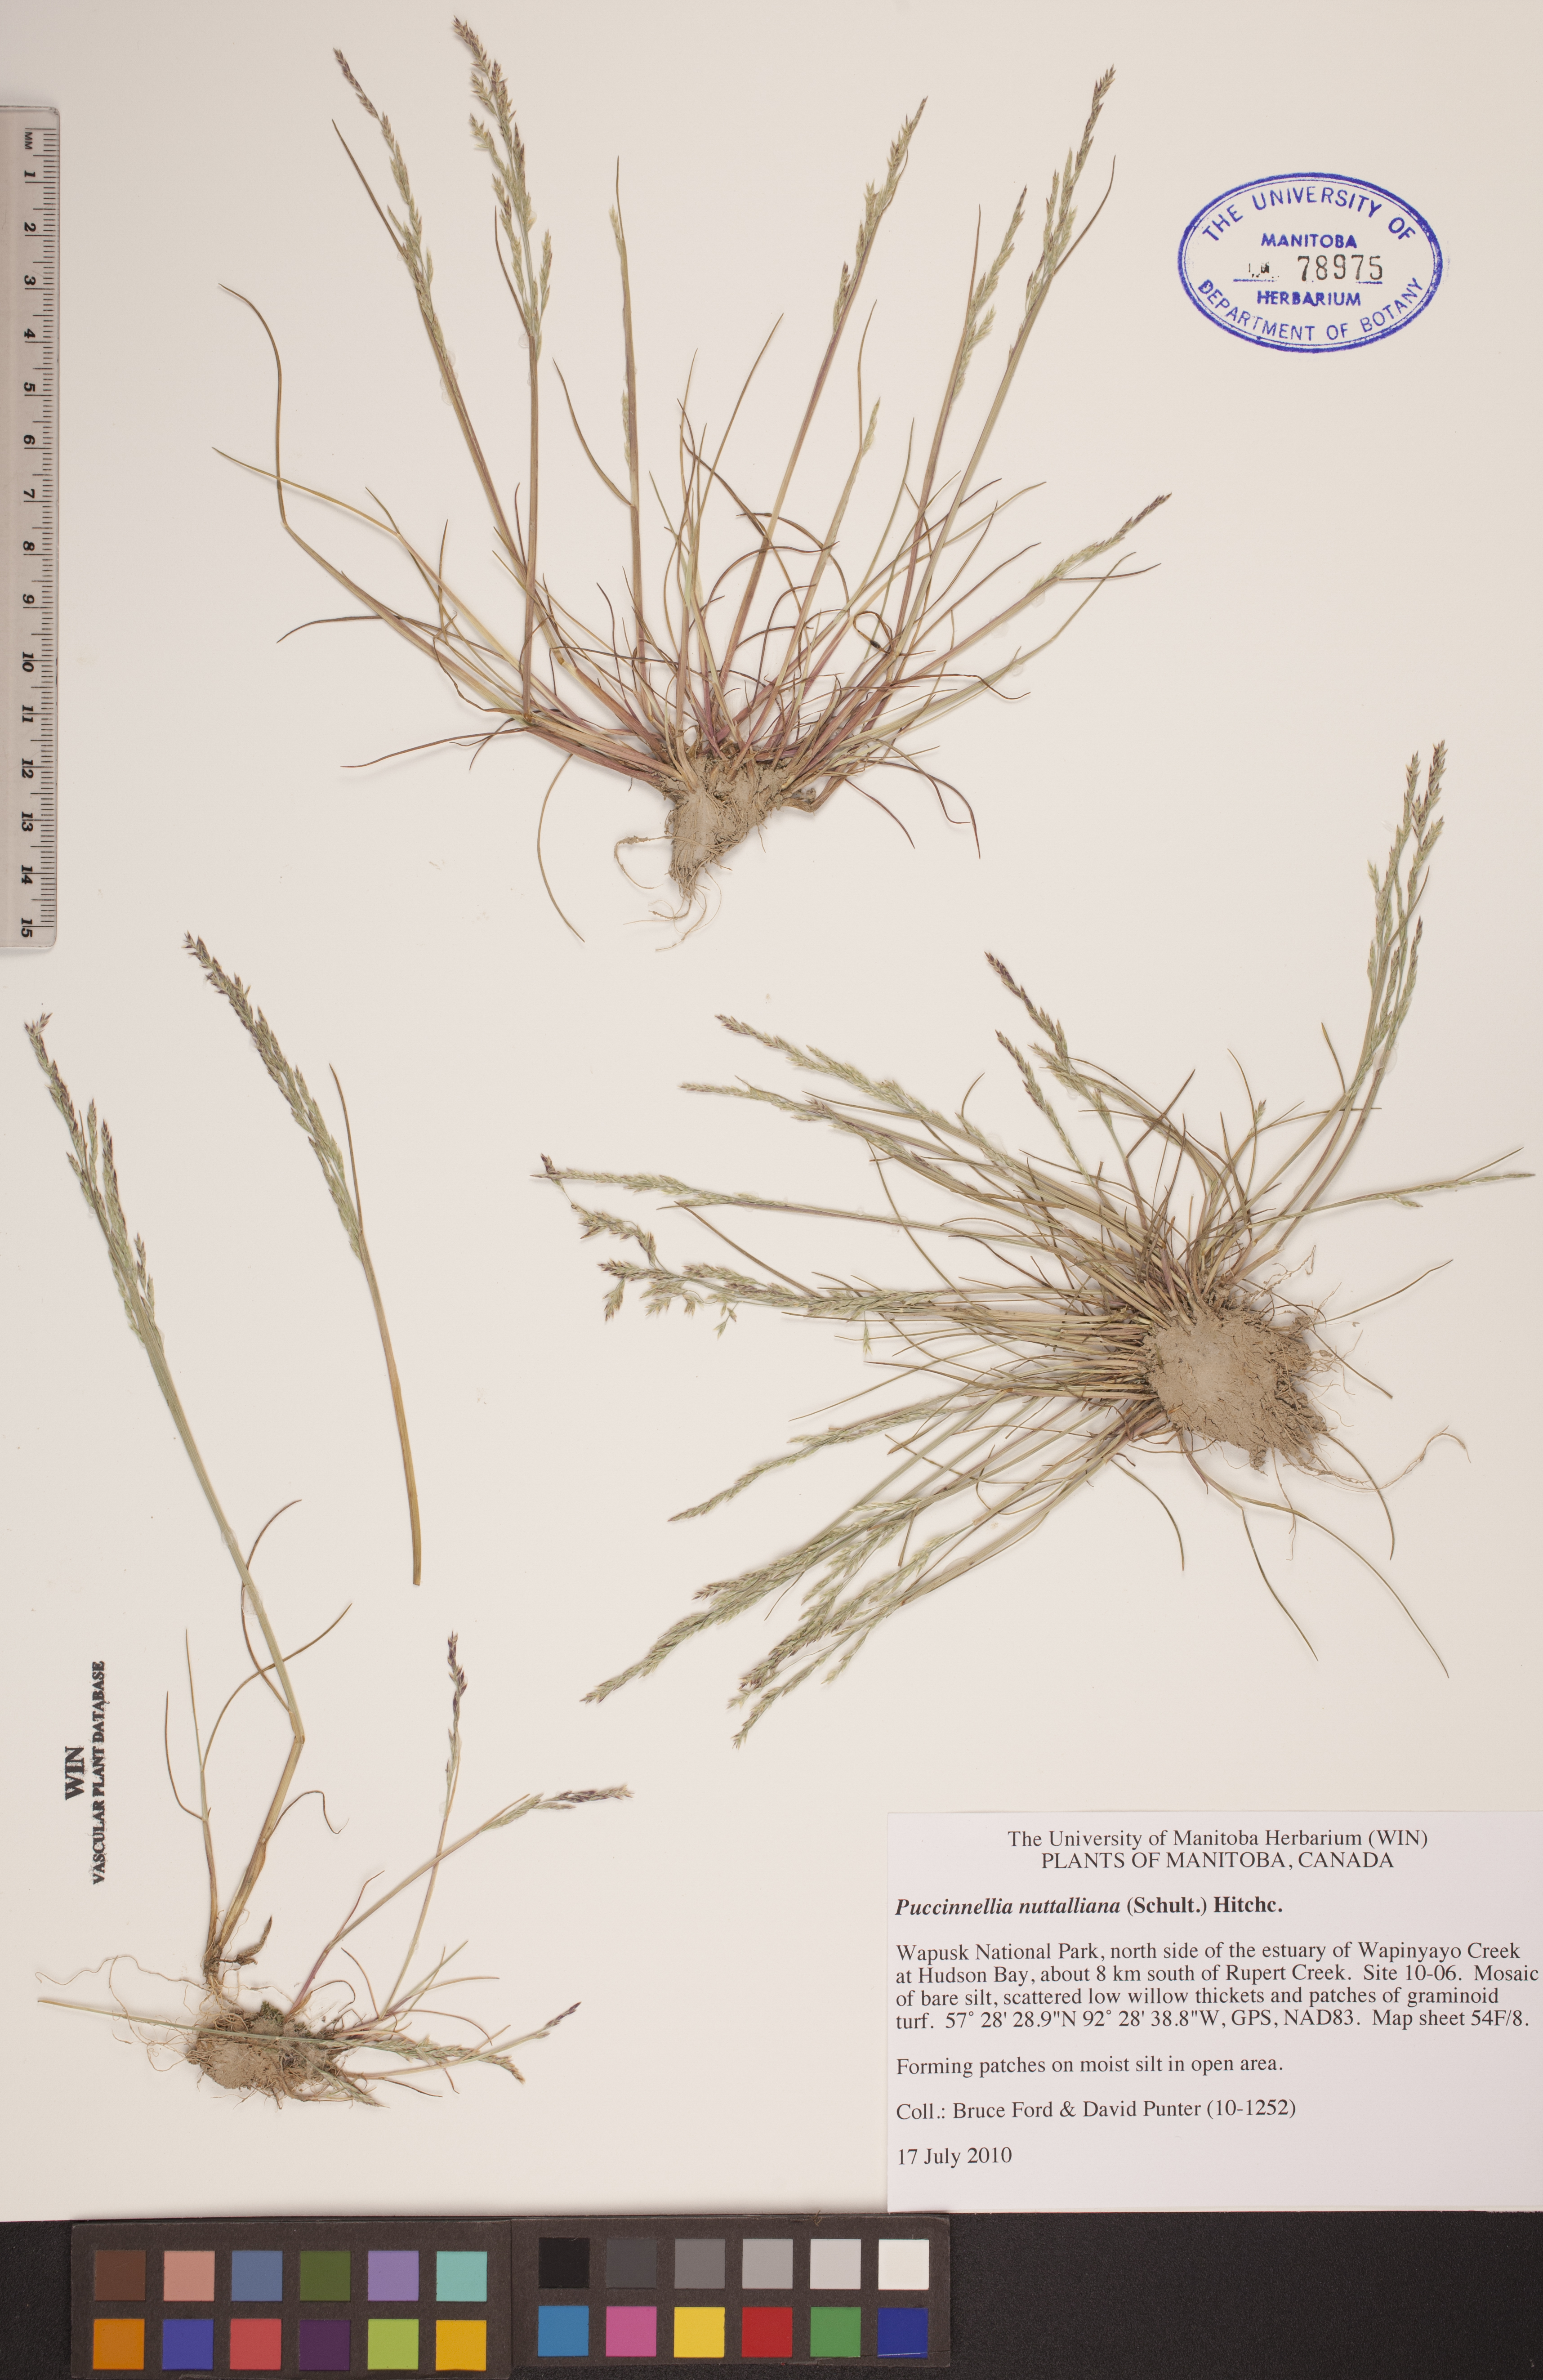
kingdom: Plantae
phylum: Tracheophyta
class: Liliopsida
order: Poales
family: Poaceae
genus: Puccinellia
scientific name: Puccinellia nuttalliana
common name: Nuttall's alkali grass
